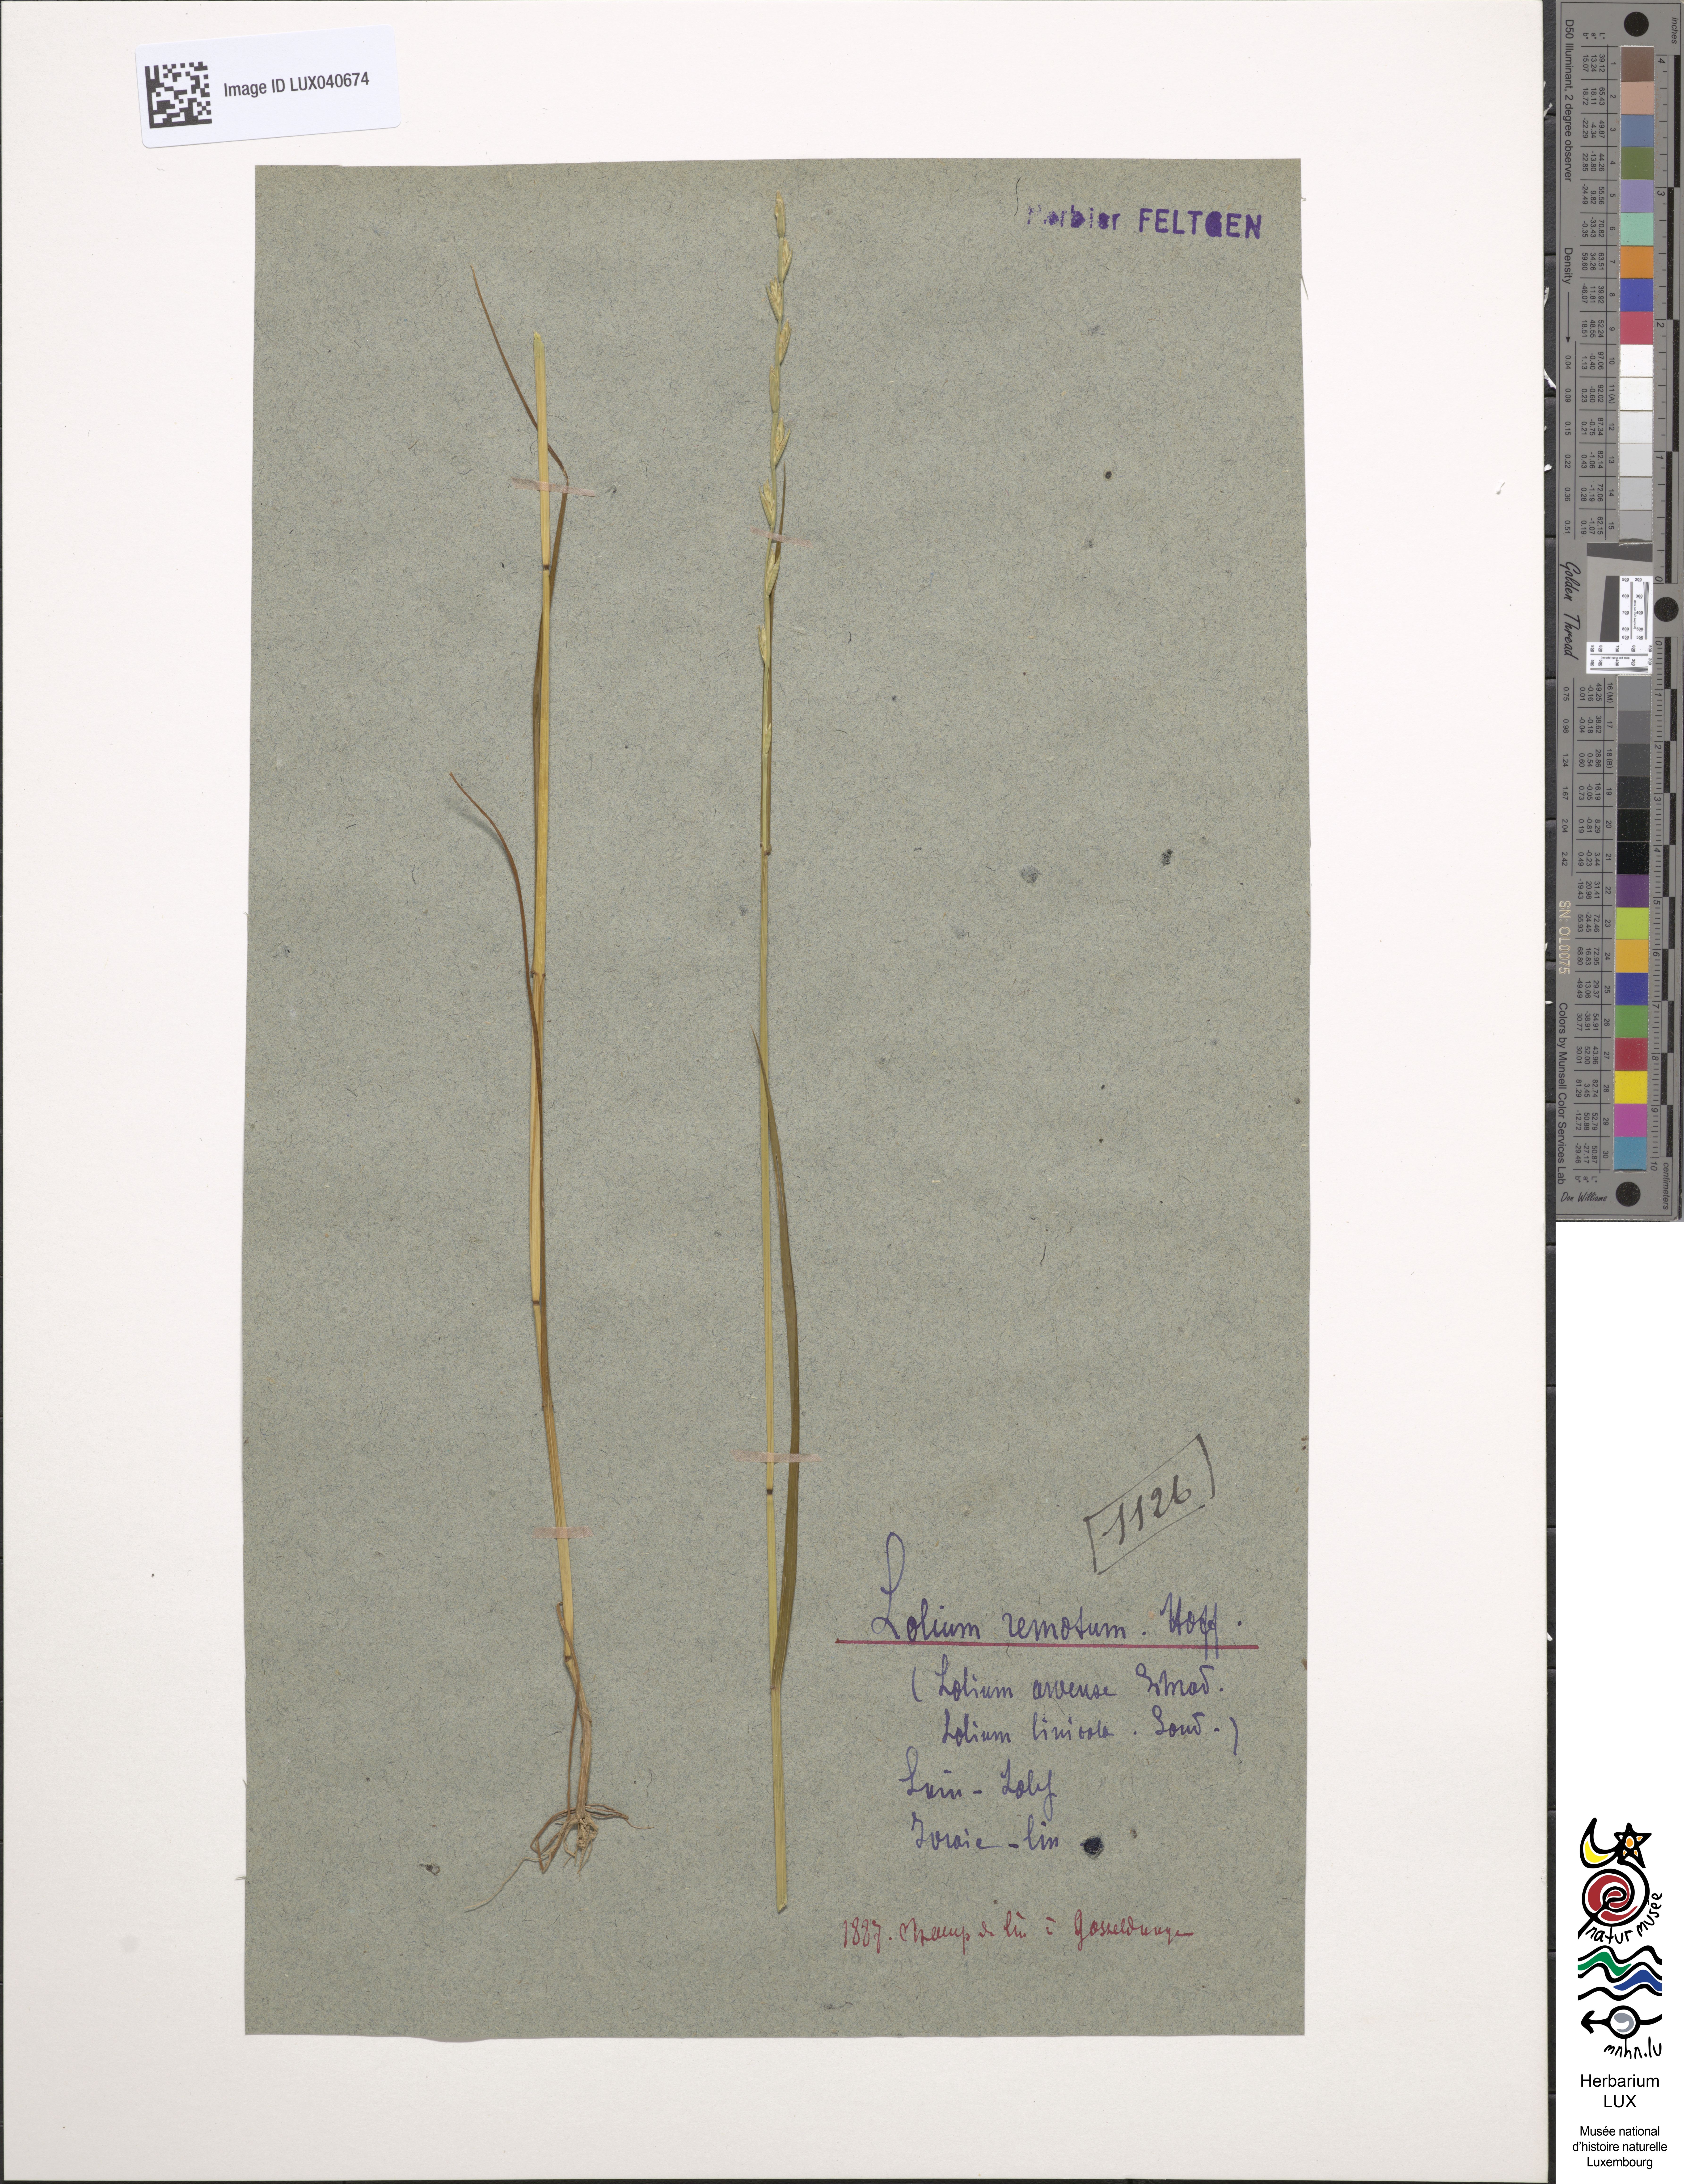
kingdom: Plantae
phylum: Tracheophyta
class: Liliopsida
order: Poales
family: Poaceae
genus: Lolium
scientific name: Lolium remotum
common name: Flaxfield rye-grass
